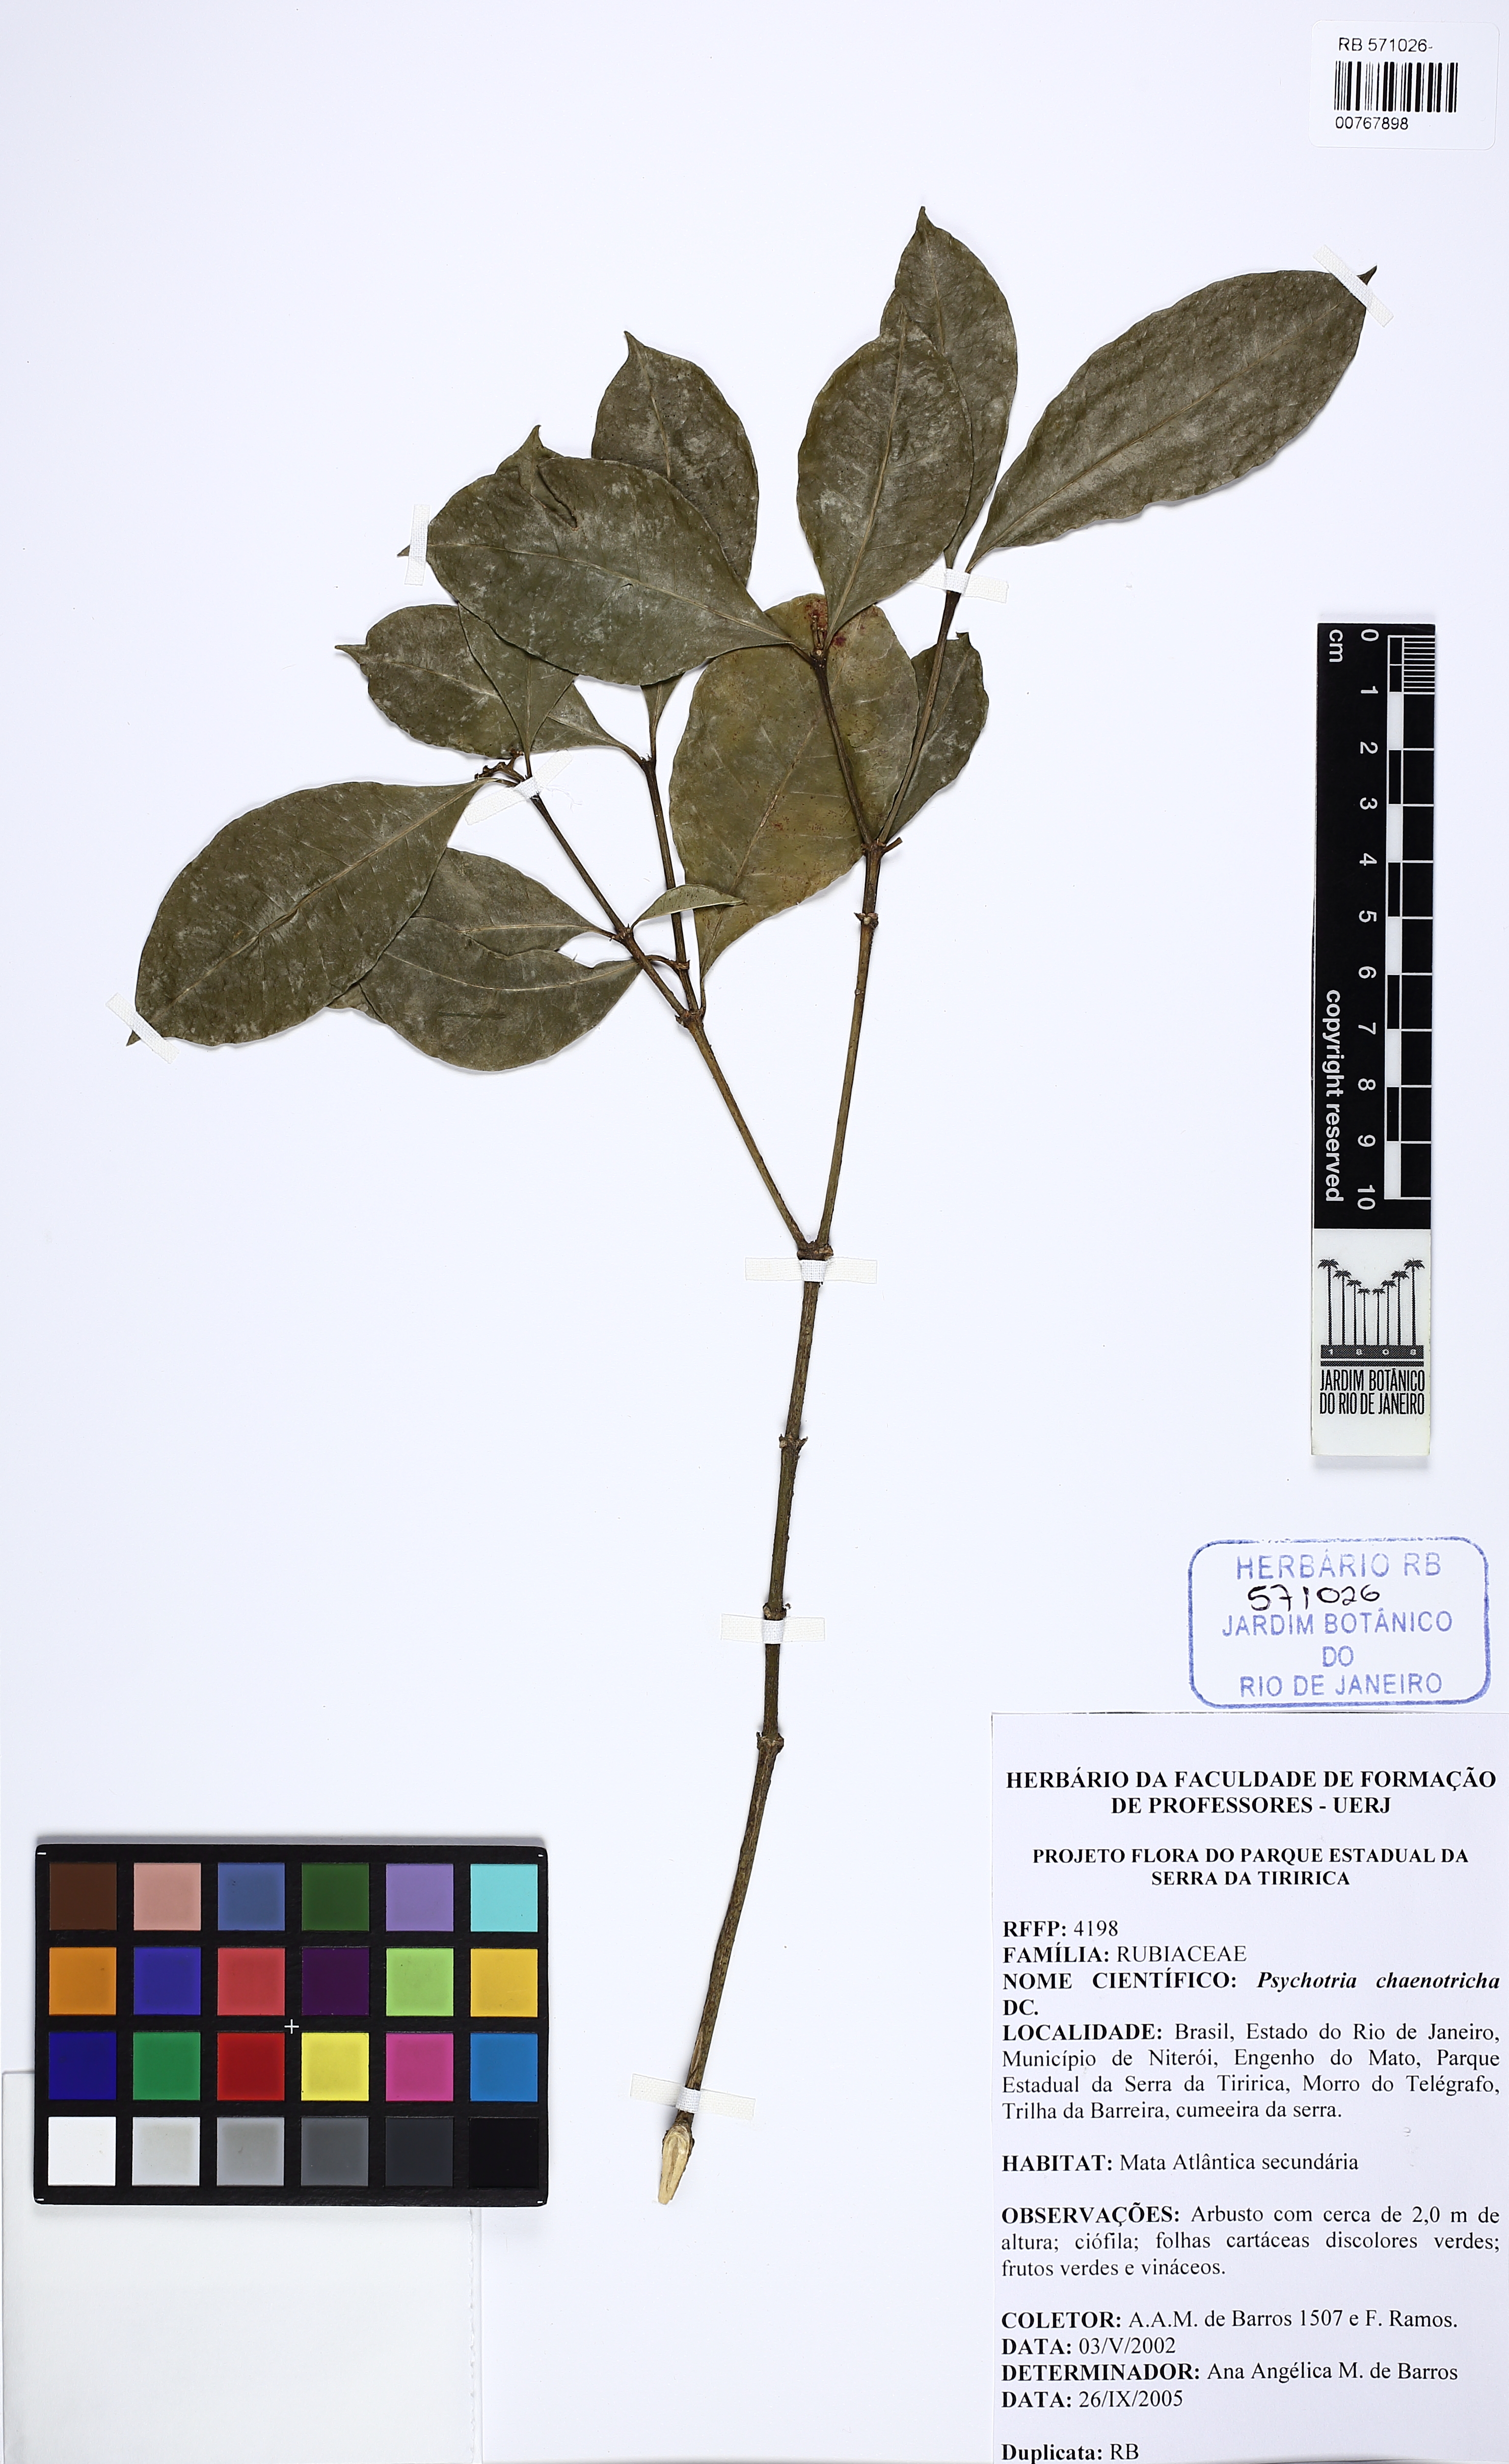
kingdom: Plantae
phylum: Tracheophyta
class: Magnoliopsida
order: Gentianales
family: Rubiaceae
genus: Eumachia
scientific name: Eumachia chaenotricha
